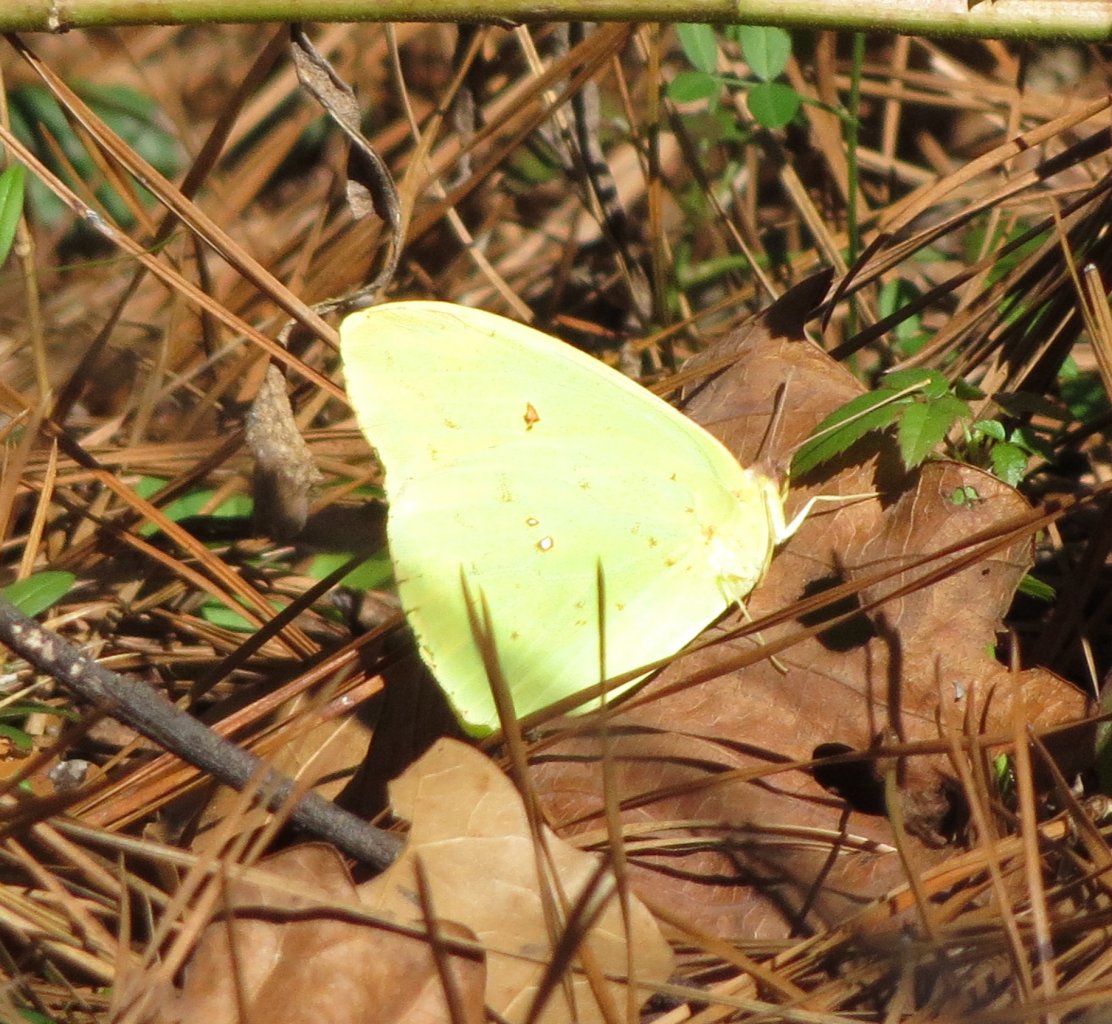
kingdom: Animalia
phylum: Arthropoda
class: Insecta
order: Lepidoptera
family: Pieridae
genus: Phoebis
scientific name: Phoebis sennae
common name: Cloudless Sulphur
